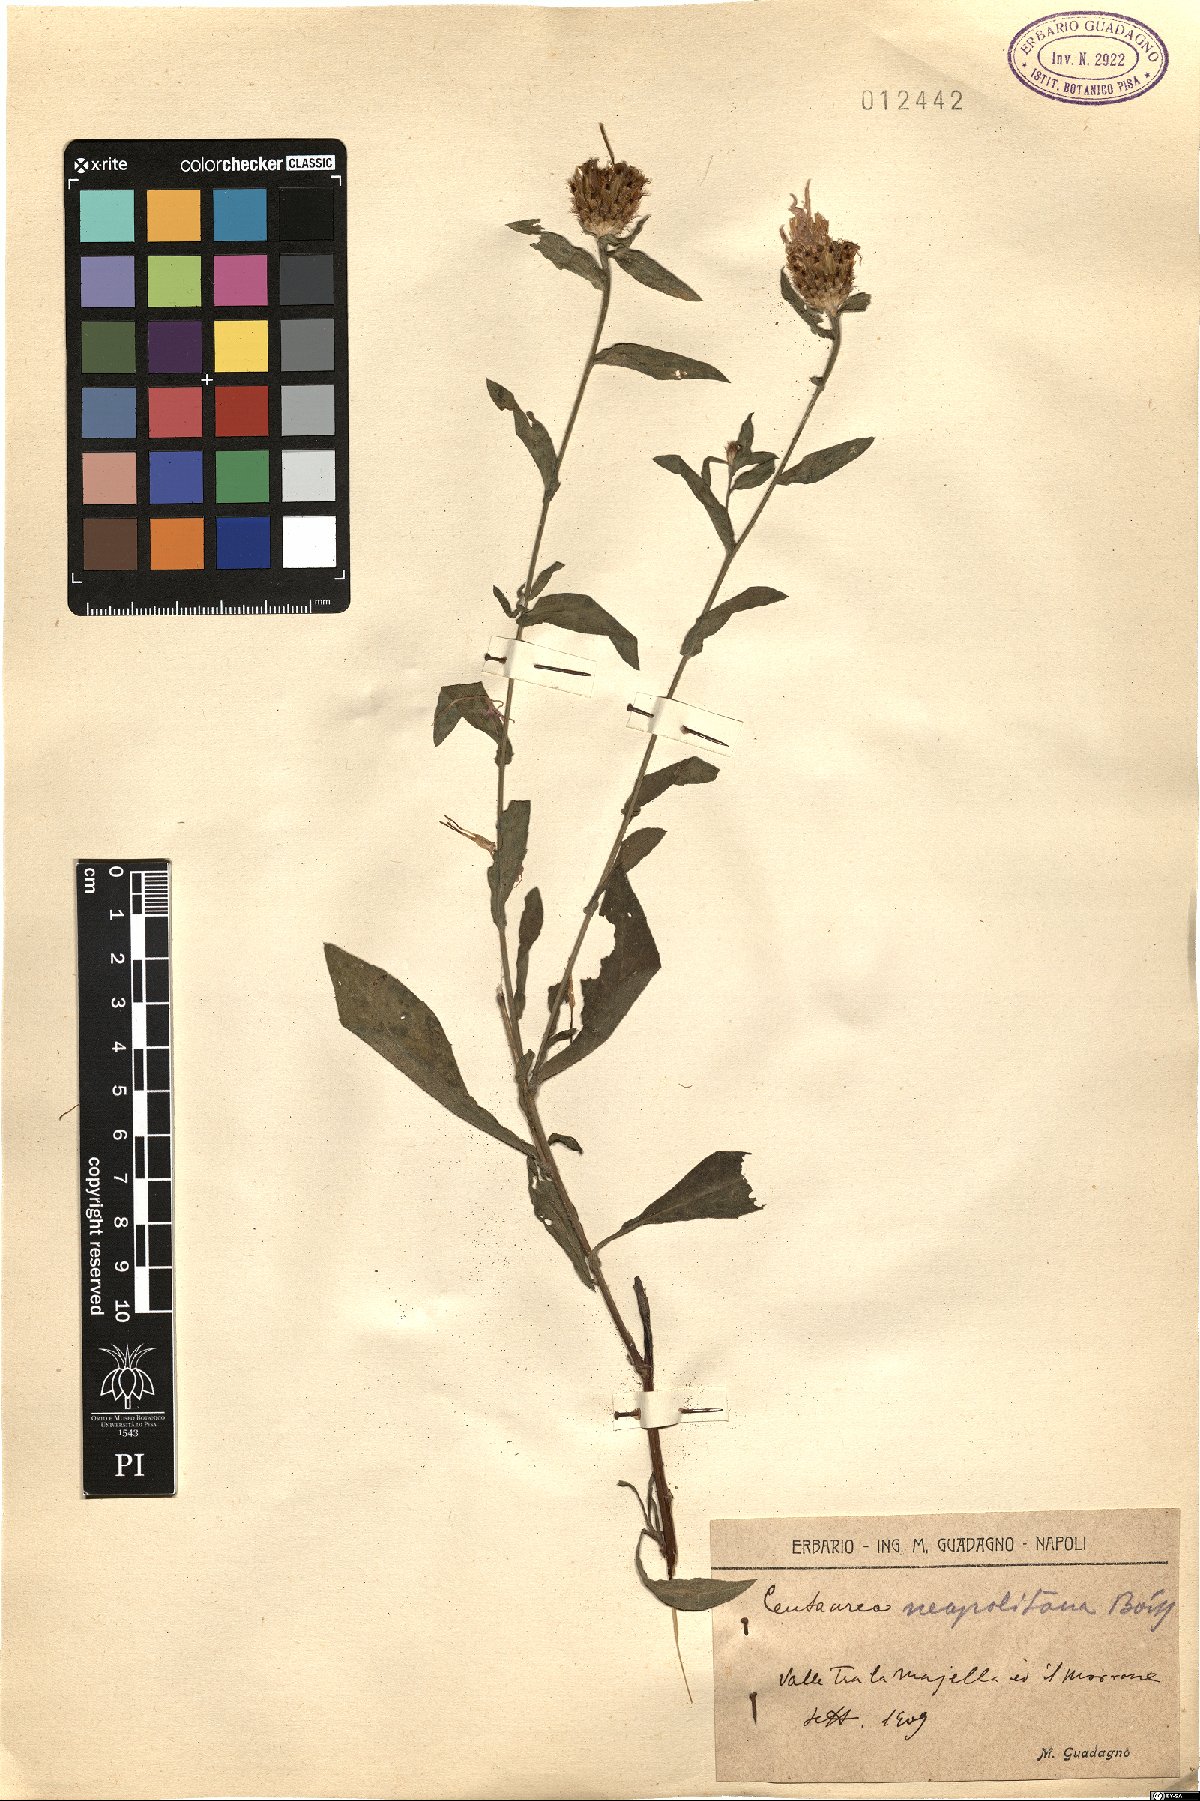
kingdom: Plantae
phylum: Tracheophyta
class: Magnoliopsida
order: Asterales
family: Asteraceae
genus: Centaurea
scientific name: Centaurea nigrescens
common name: Tyrol knapweed
